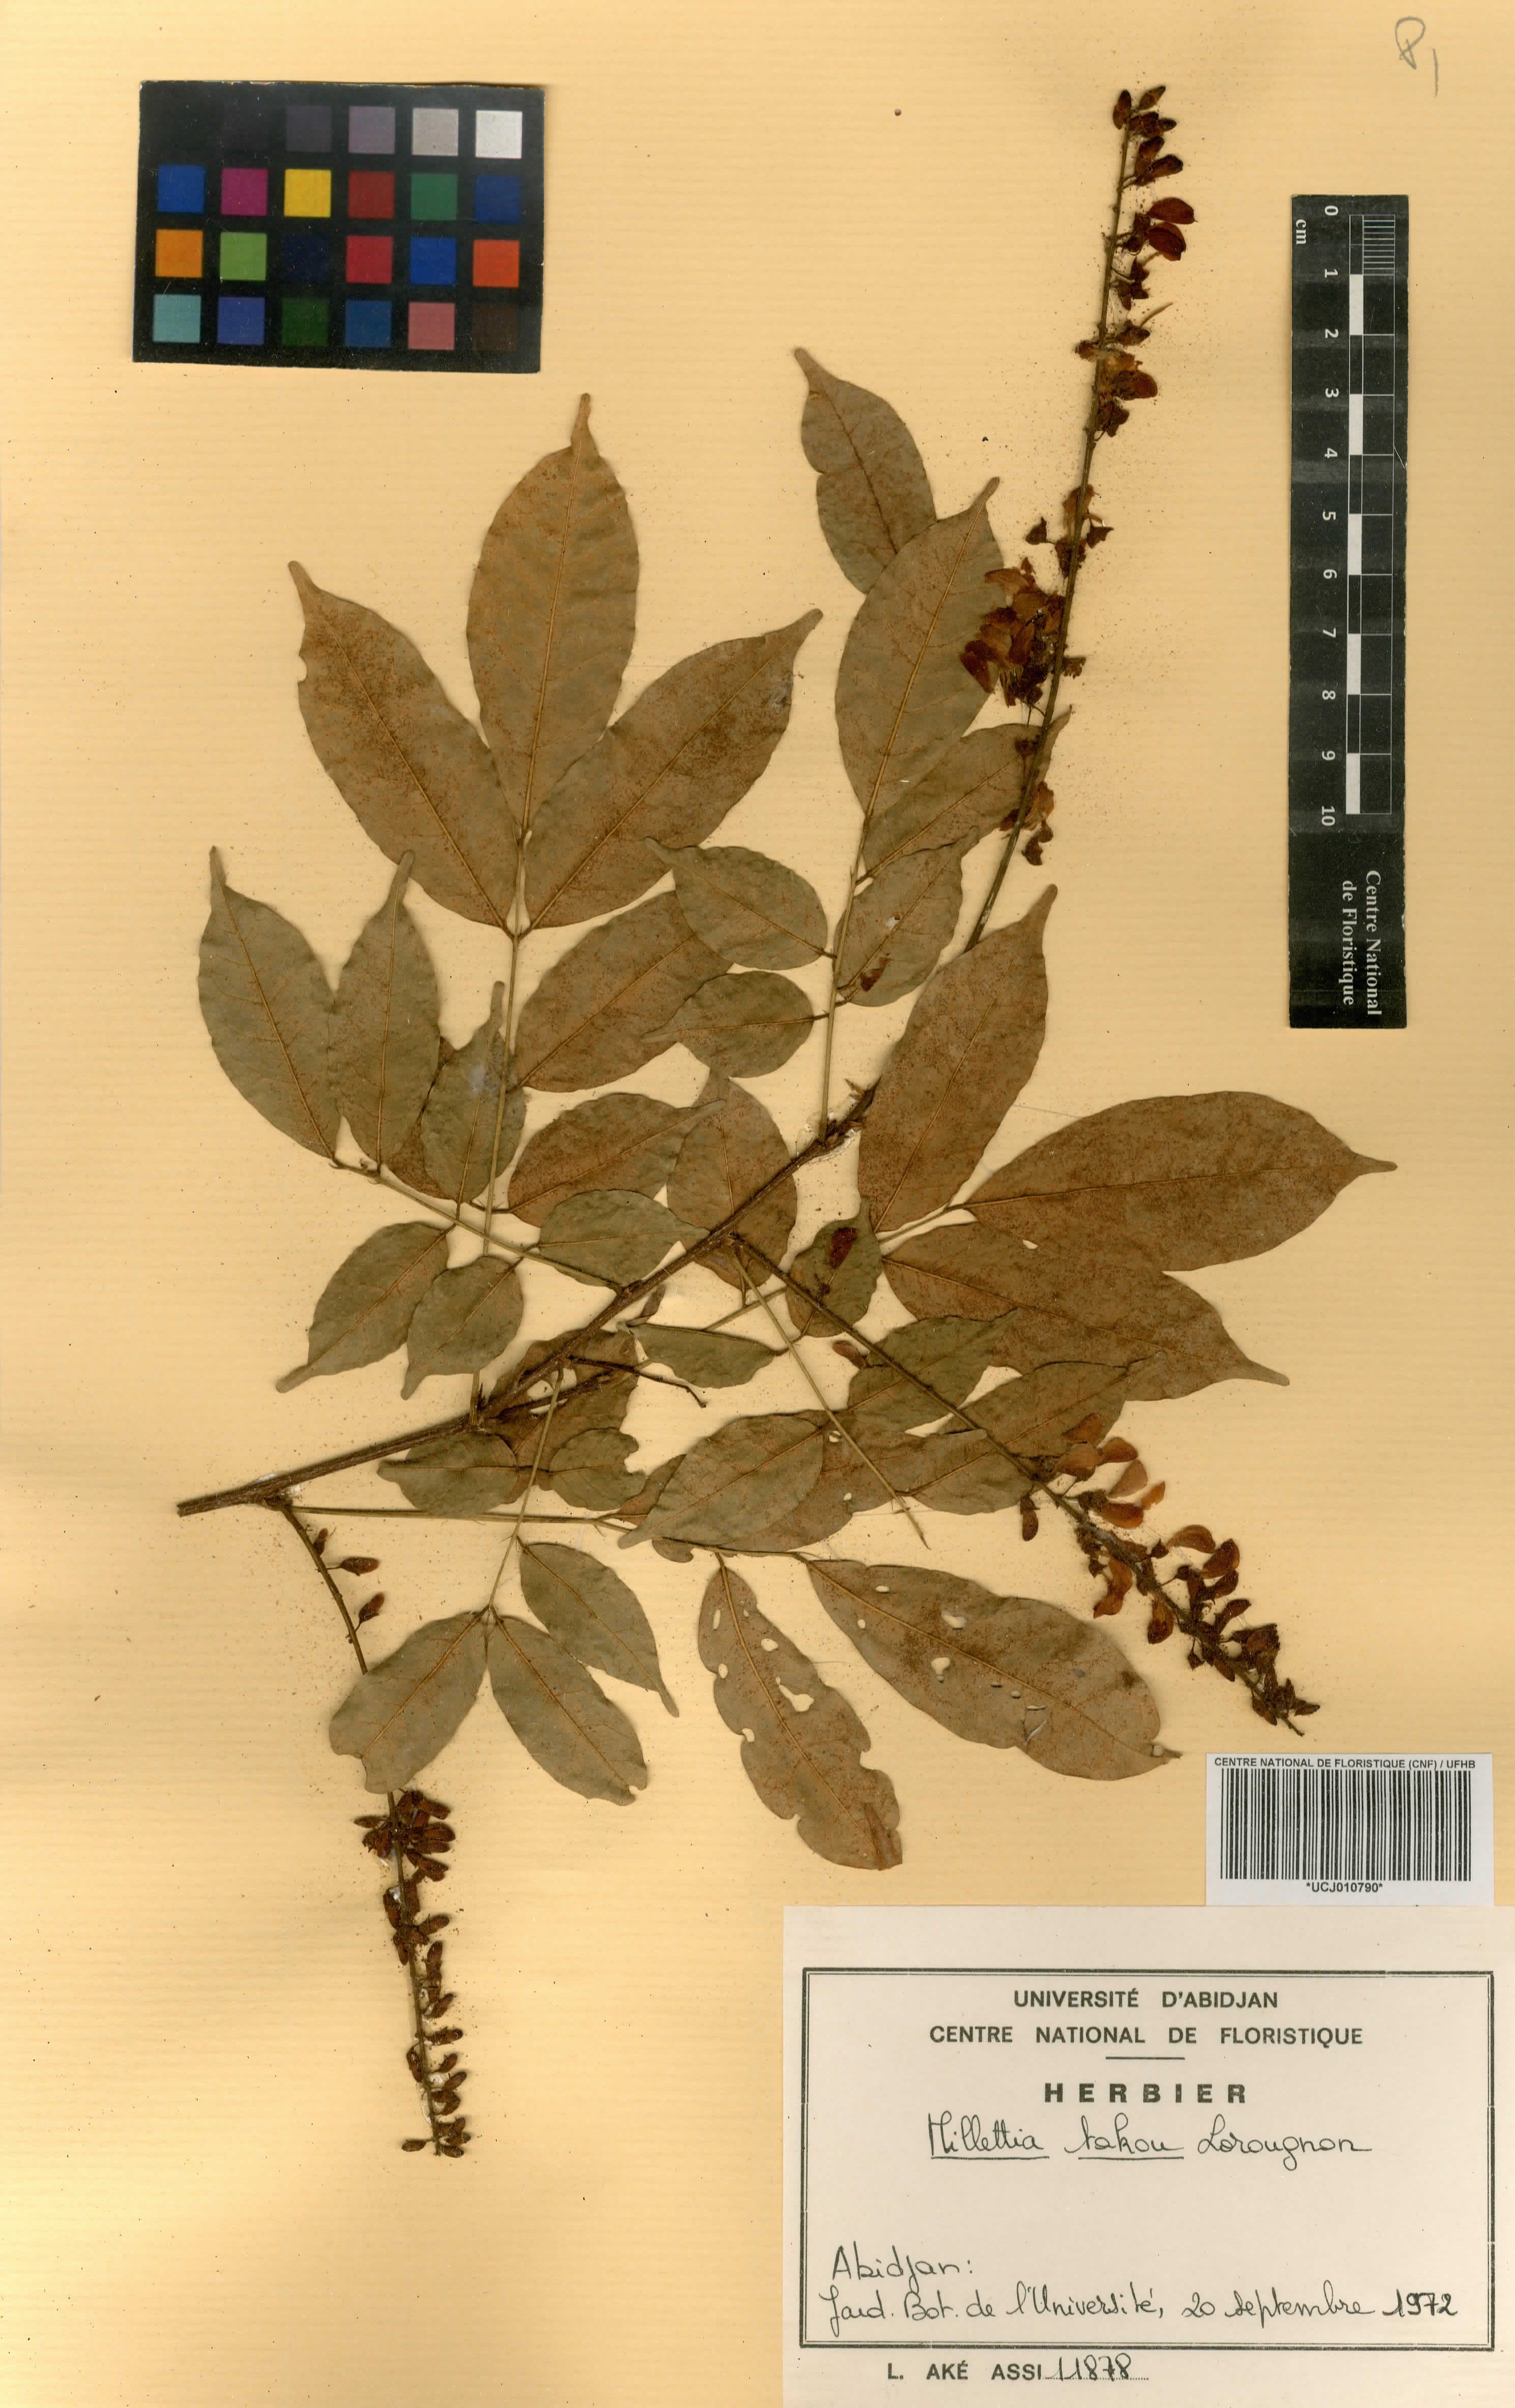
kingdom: Plantae
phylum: Tracheophyta
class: Magnoliopsida
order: Fabales
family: Fabaceae
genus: Millettia
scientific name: Millettia takou
